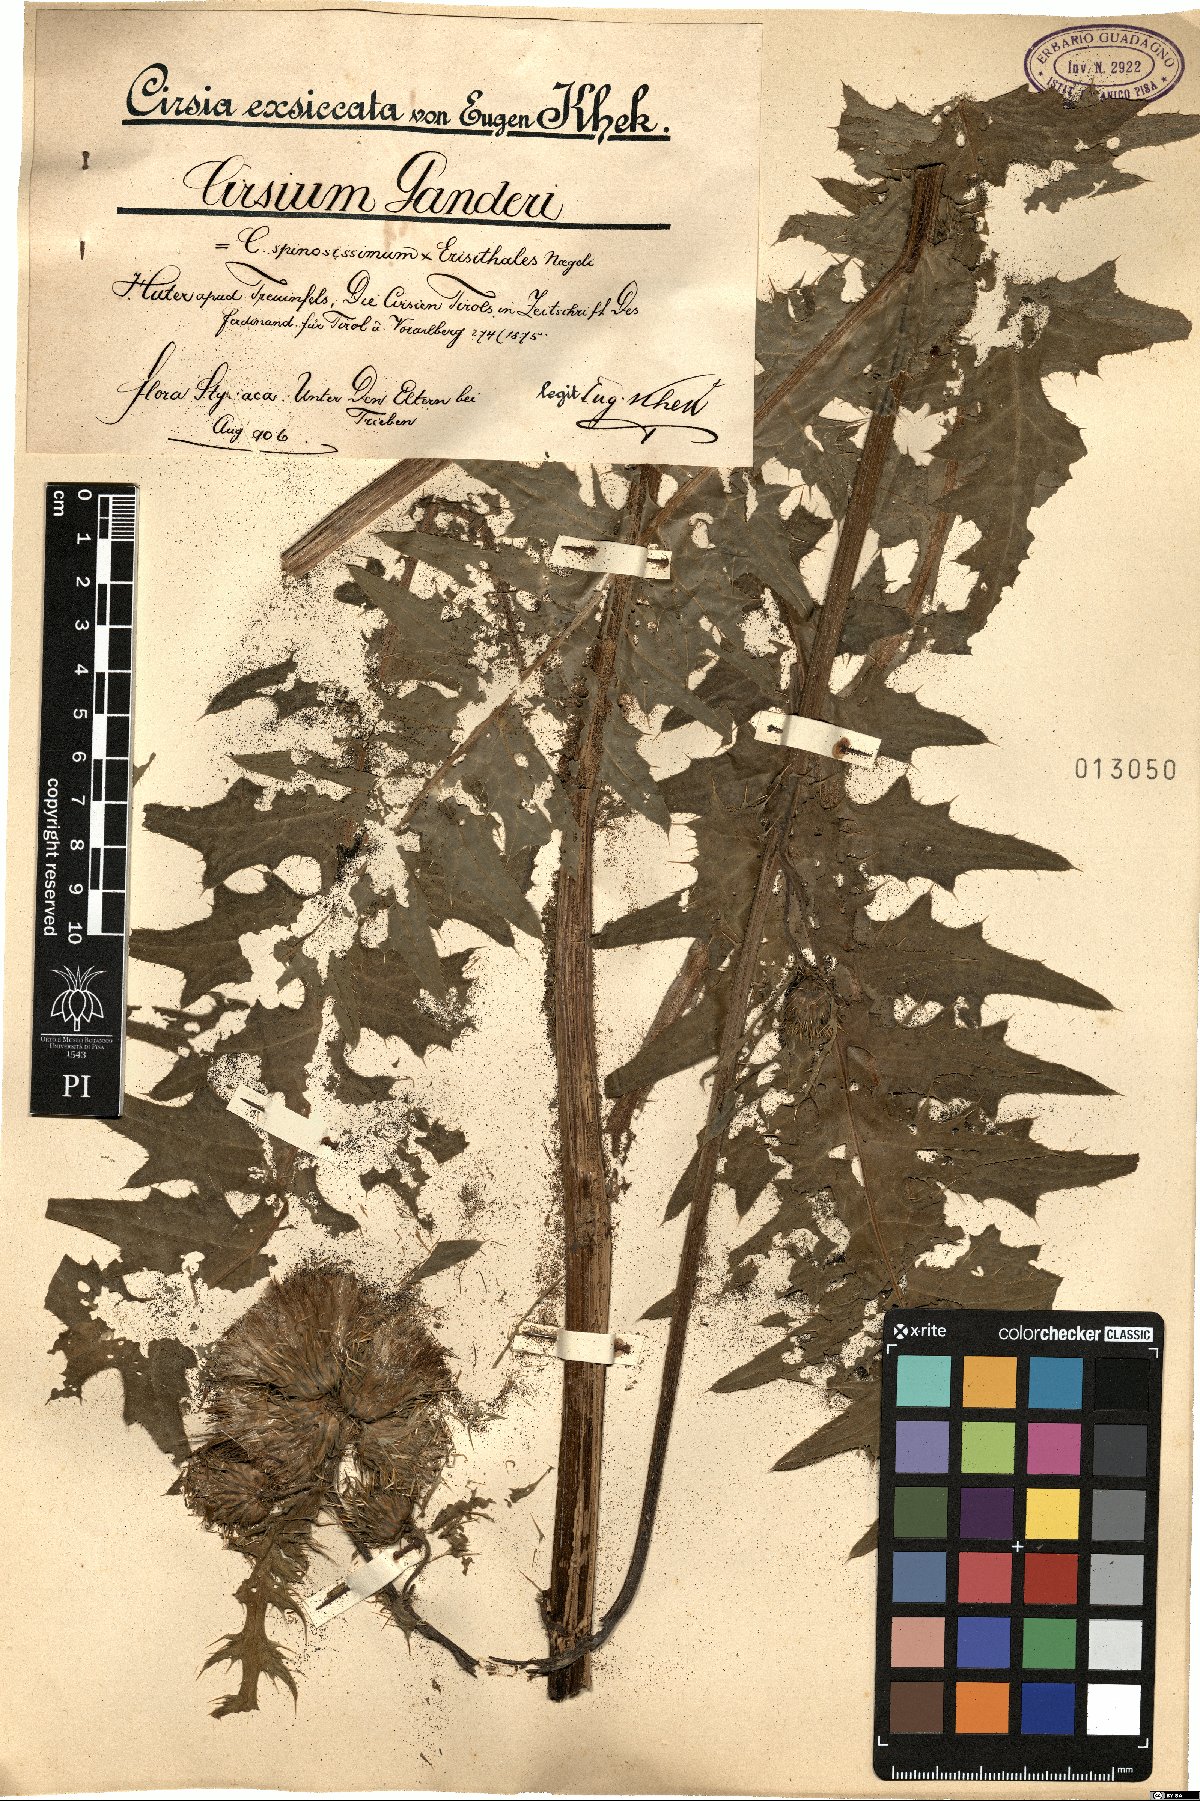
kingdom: Plantae
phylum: Tracheophyta
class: Magnoliopsida
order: Asterales
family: Asteraceae
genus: Cirsium
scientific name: Cirsium ganderi
